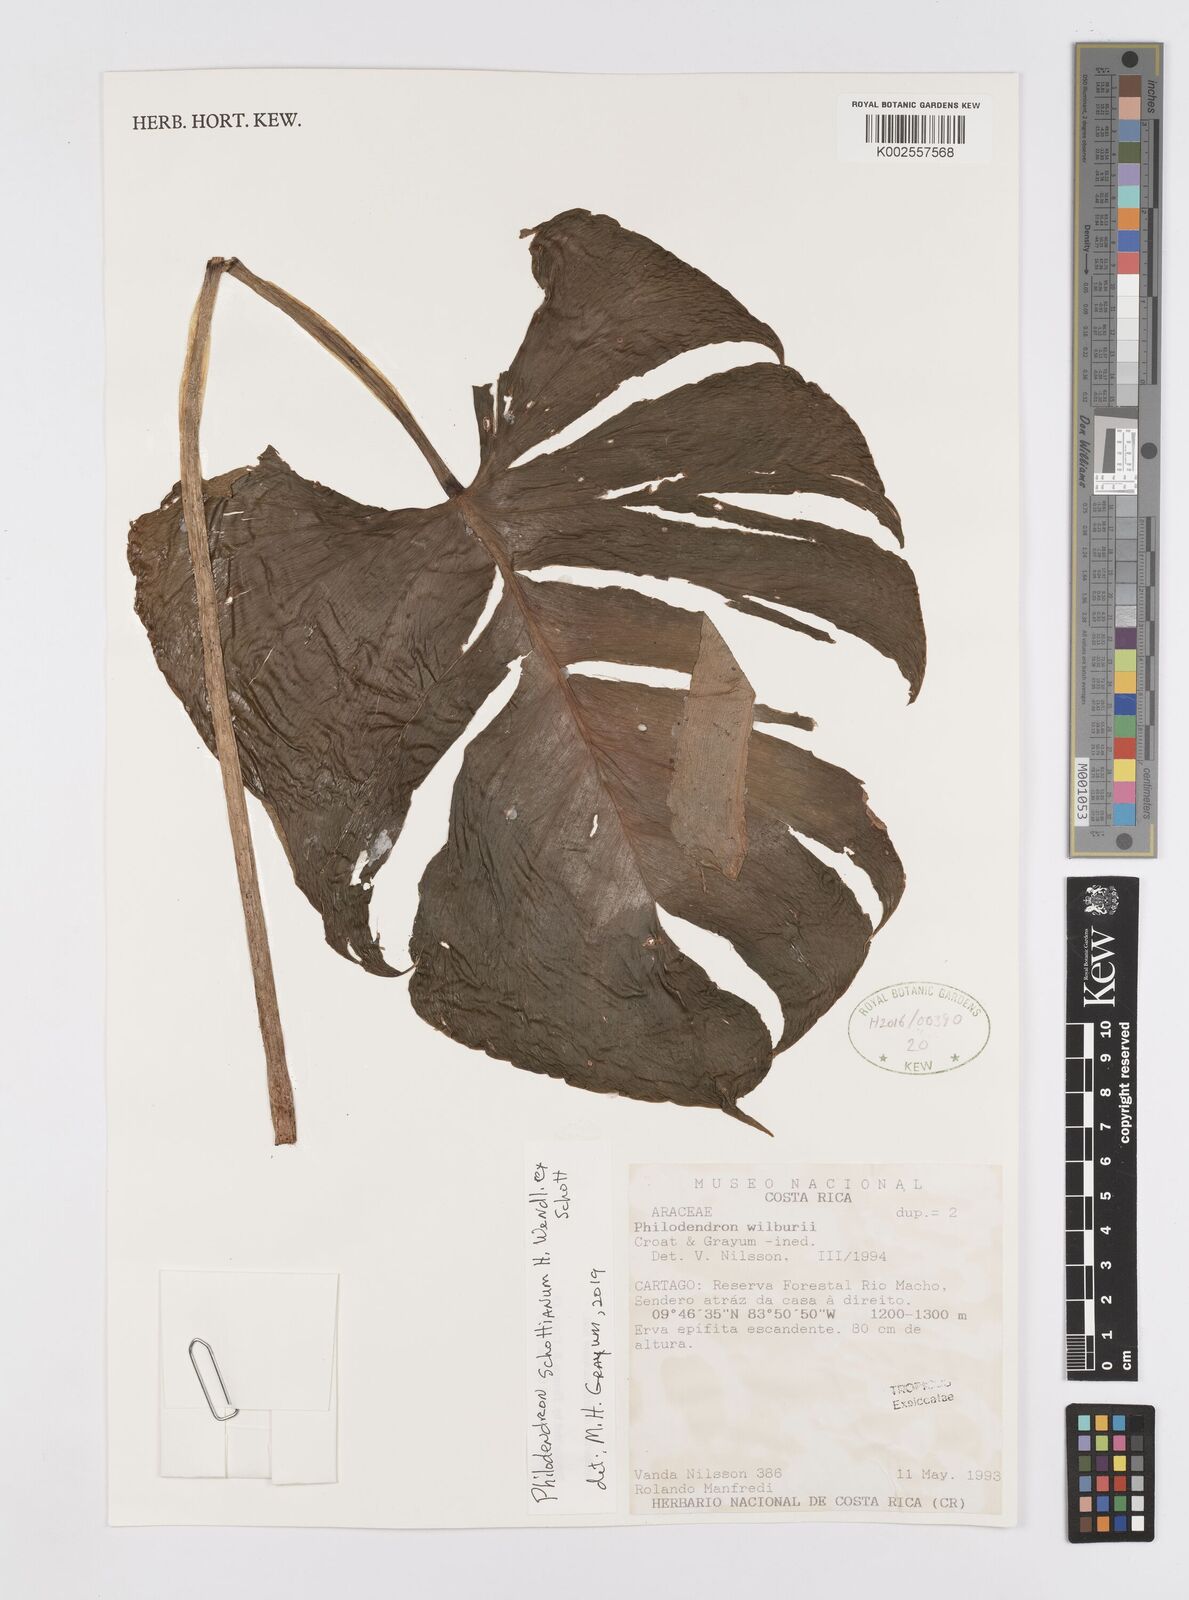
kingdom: Plantae
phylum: Tracheophyta
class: Liliopsida
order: Alismatales
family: Araceae
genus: Philodendron
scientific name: Philodendron schottianum
